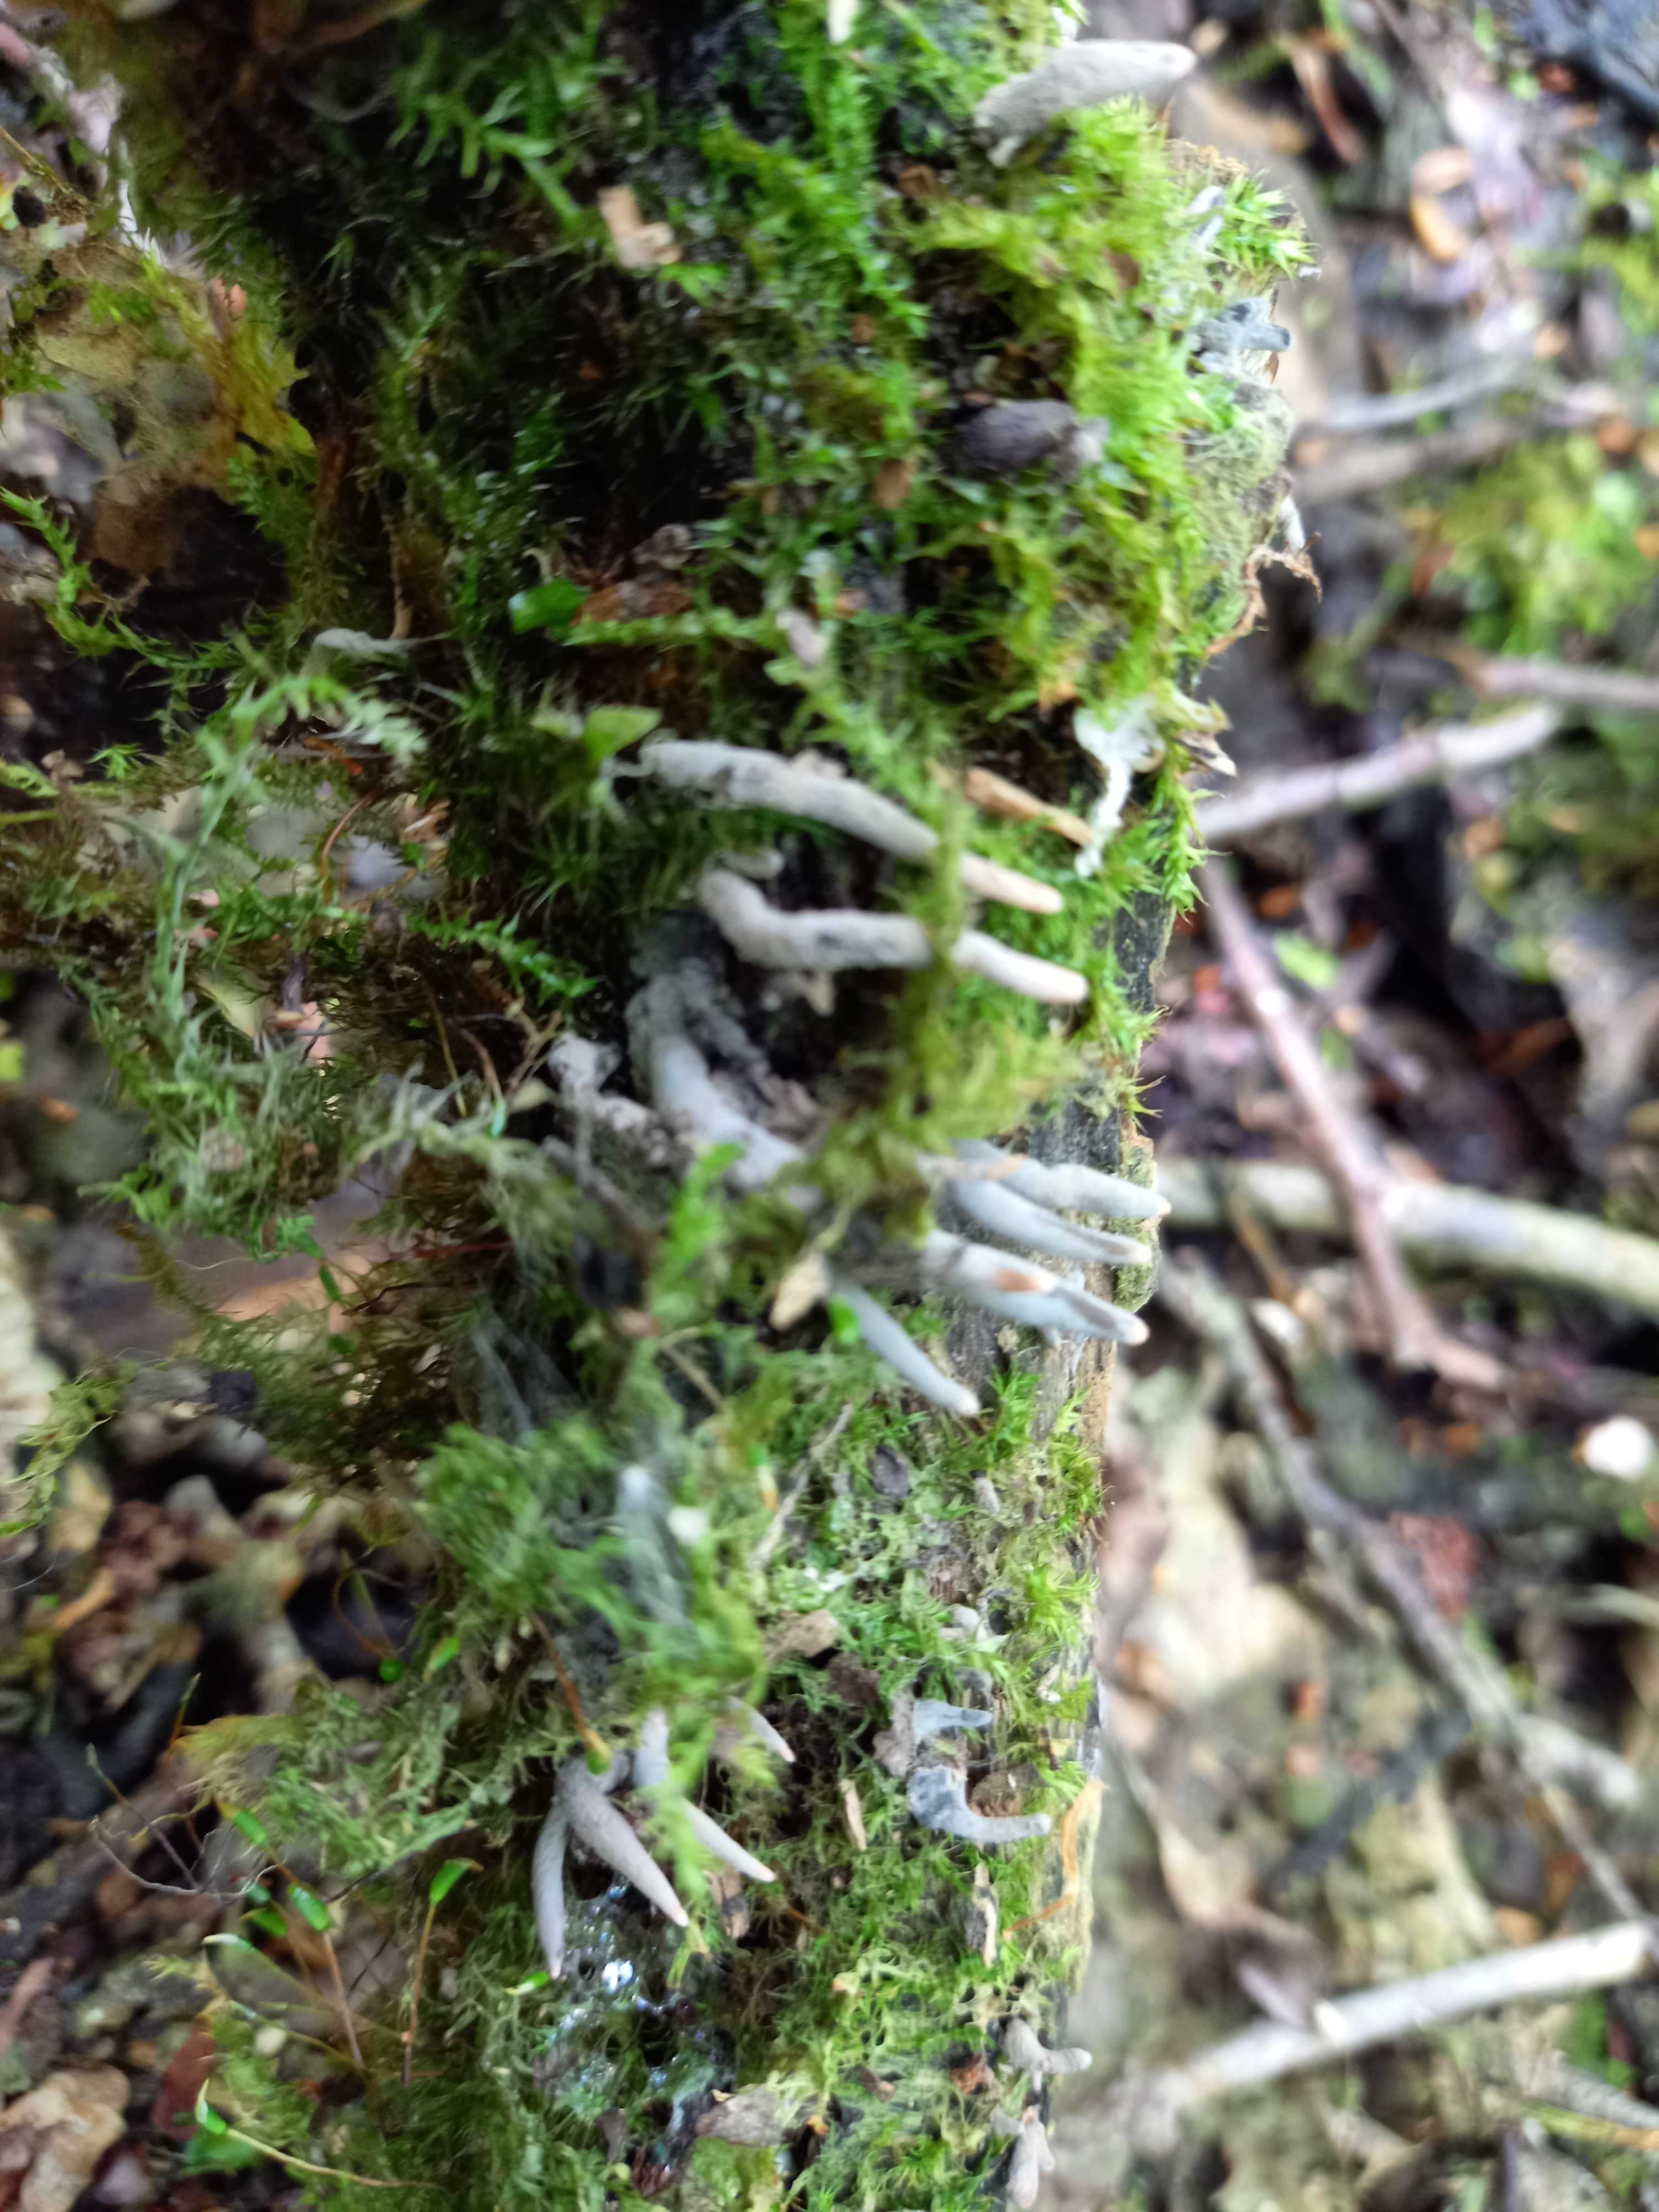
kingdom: Fungi
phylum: Ascomycota
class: Sordariomycetes
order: Xylariales
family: Xylariaceae
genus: Xylaria
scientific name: Xylaria longipes
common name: slank stødsvamp
